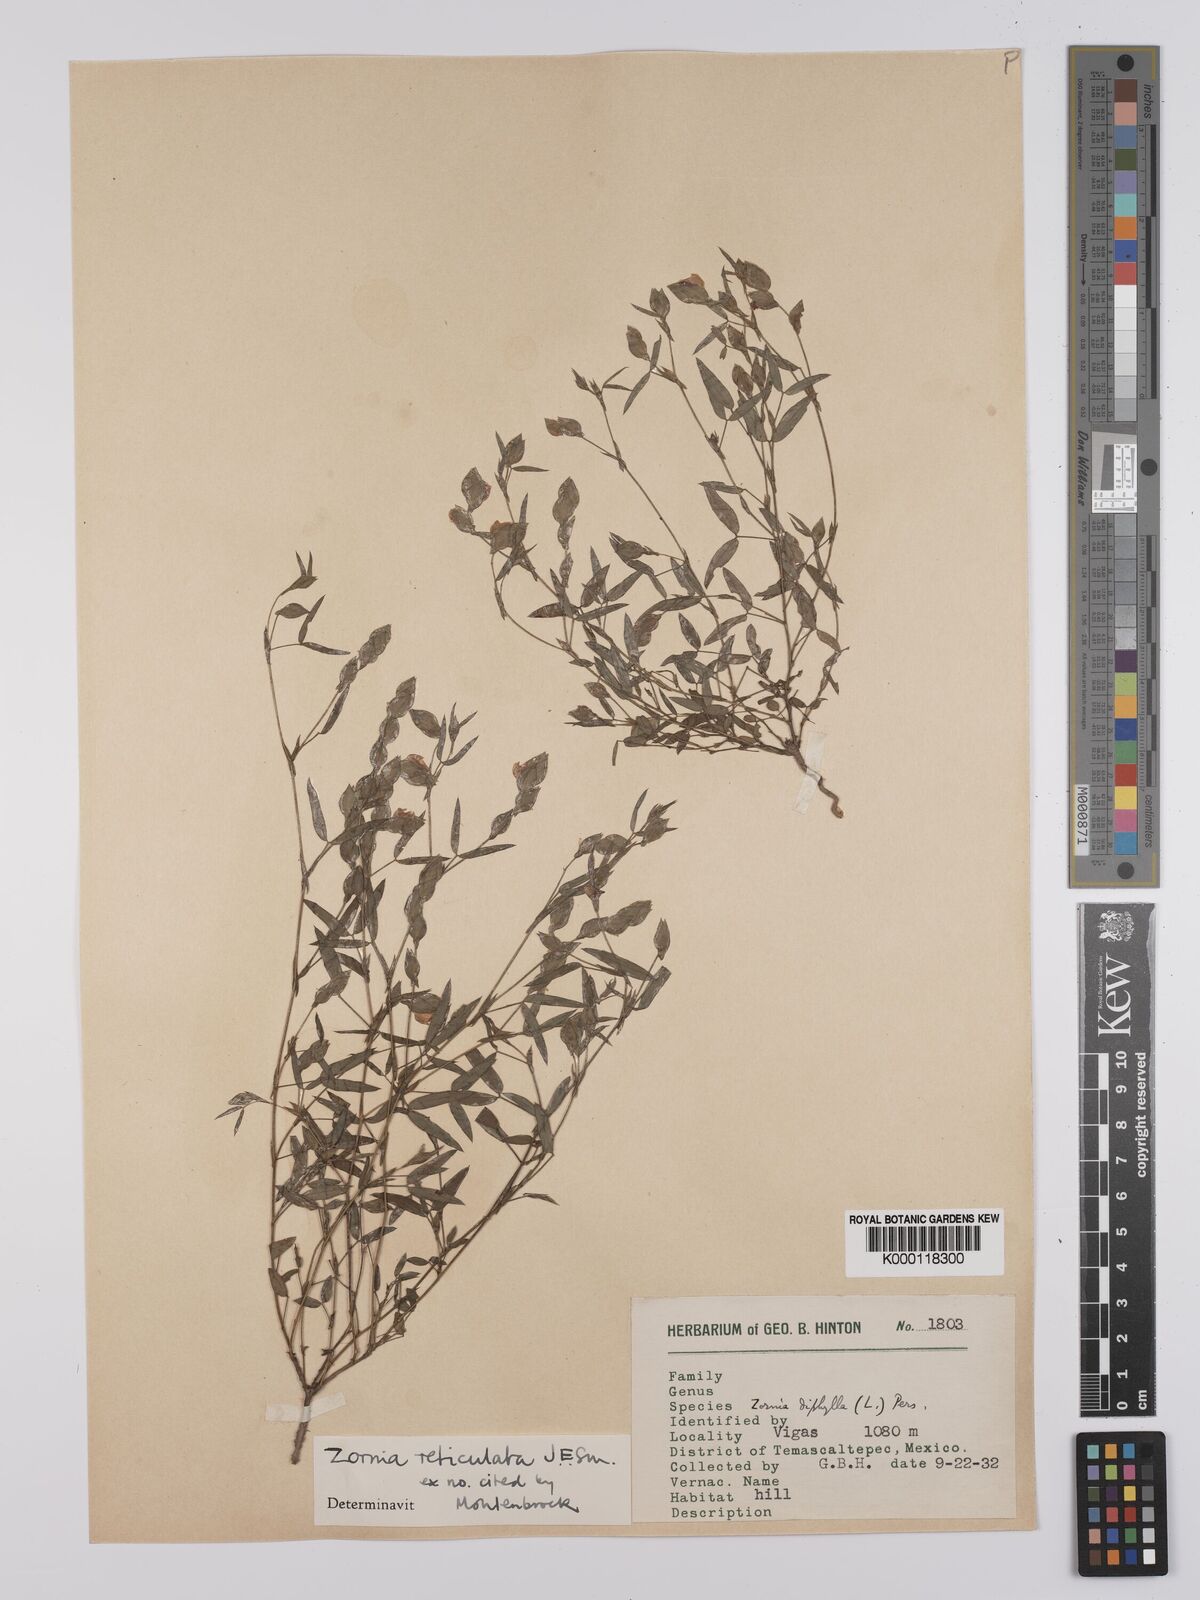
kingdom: Plantae
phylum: Tracheophyta
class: Magnoliopsida
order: Fabales
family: Fabaceae
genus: Zornia
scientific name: Zornia reticulata
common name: Reticulate viperina
